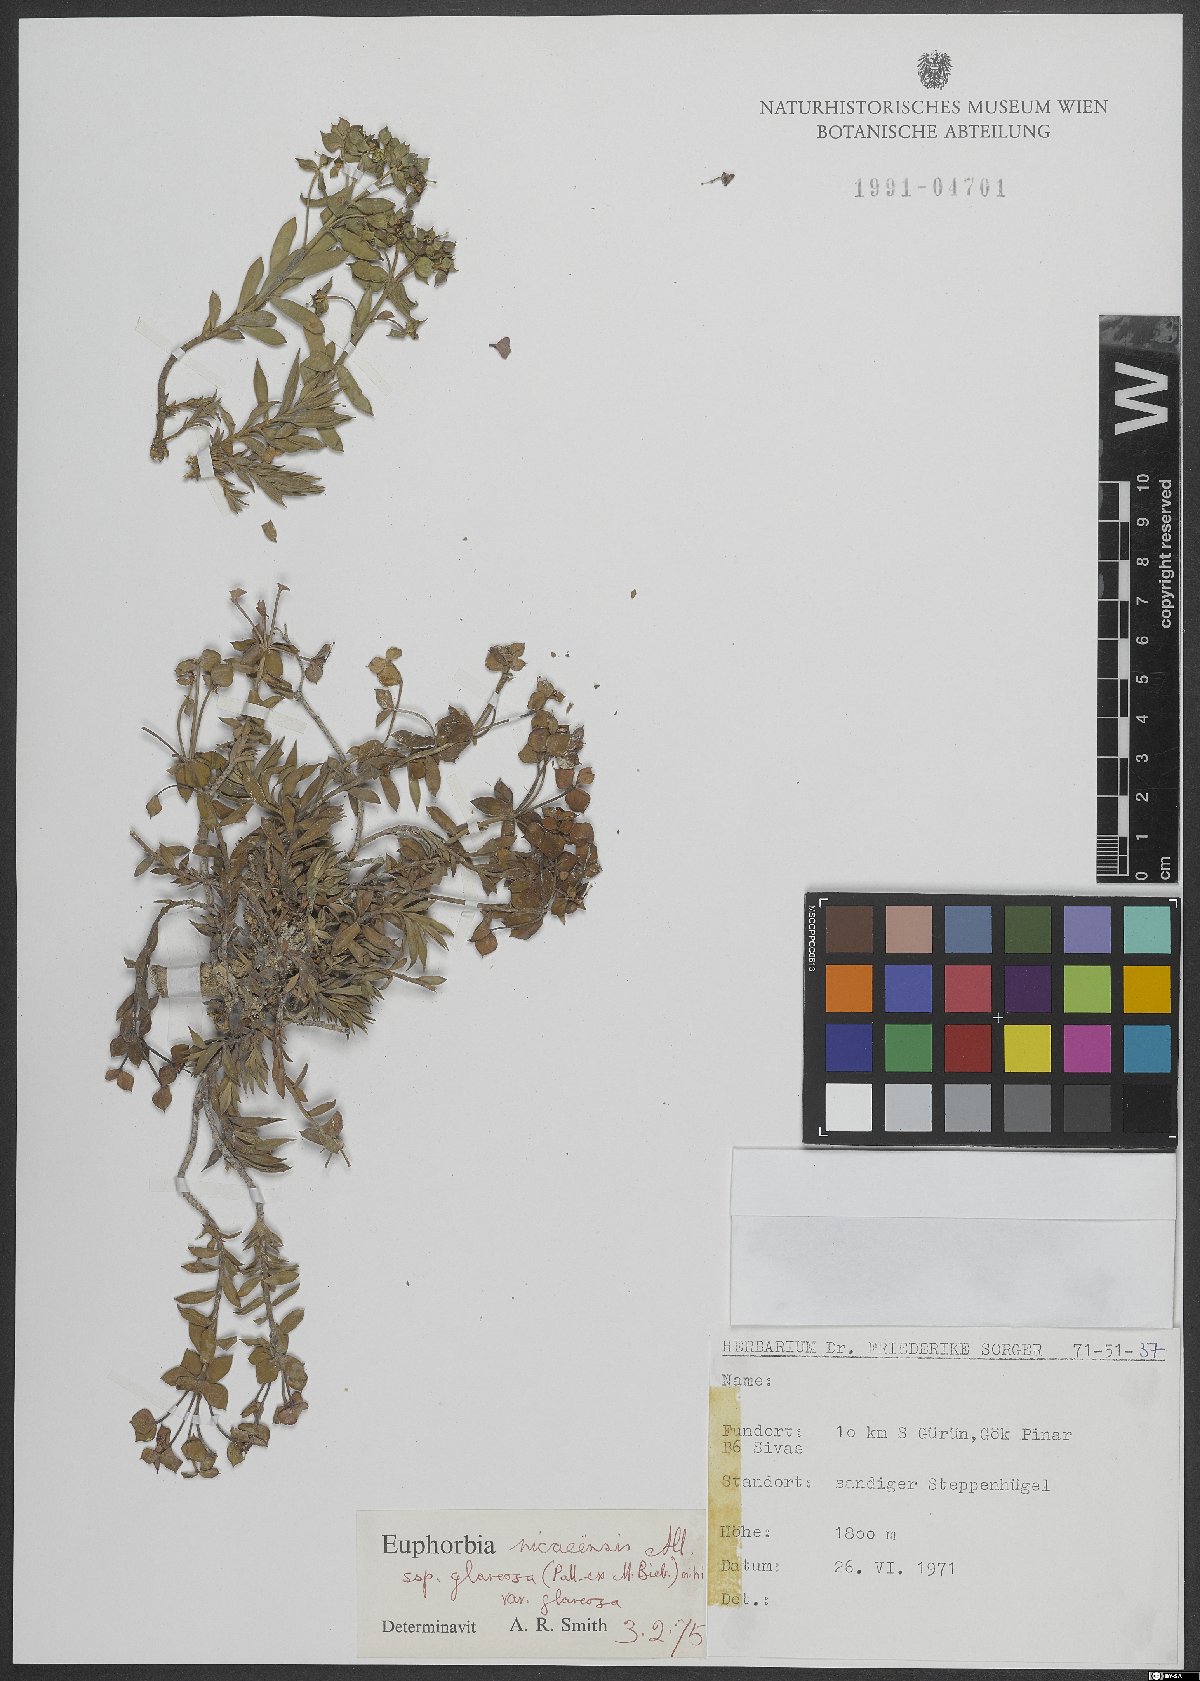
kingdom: Plantae
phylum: Tracheophyta
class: Magnoliopsida
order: Malpighiales
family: Euphorbiaceae
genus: Euphorbia
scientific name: Euphorbia glareosa
